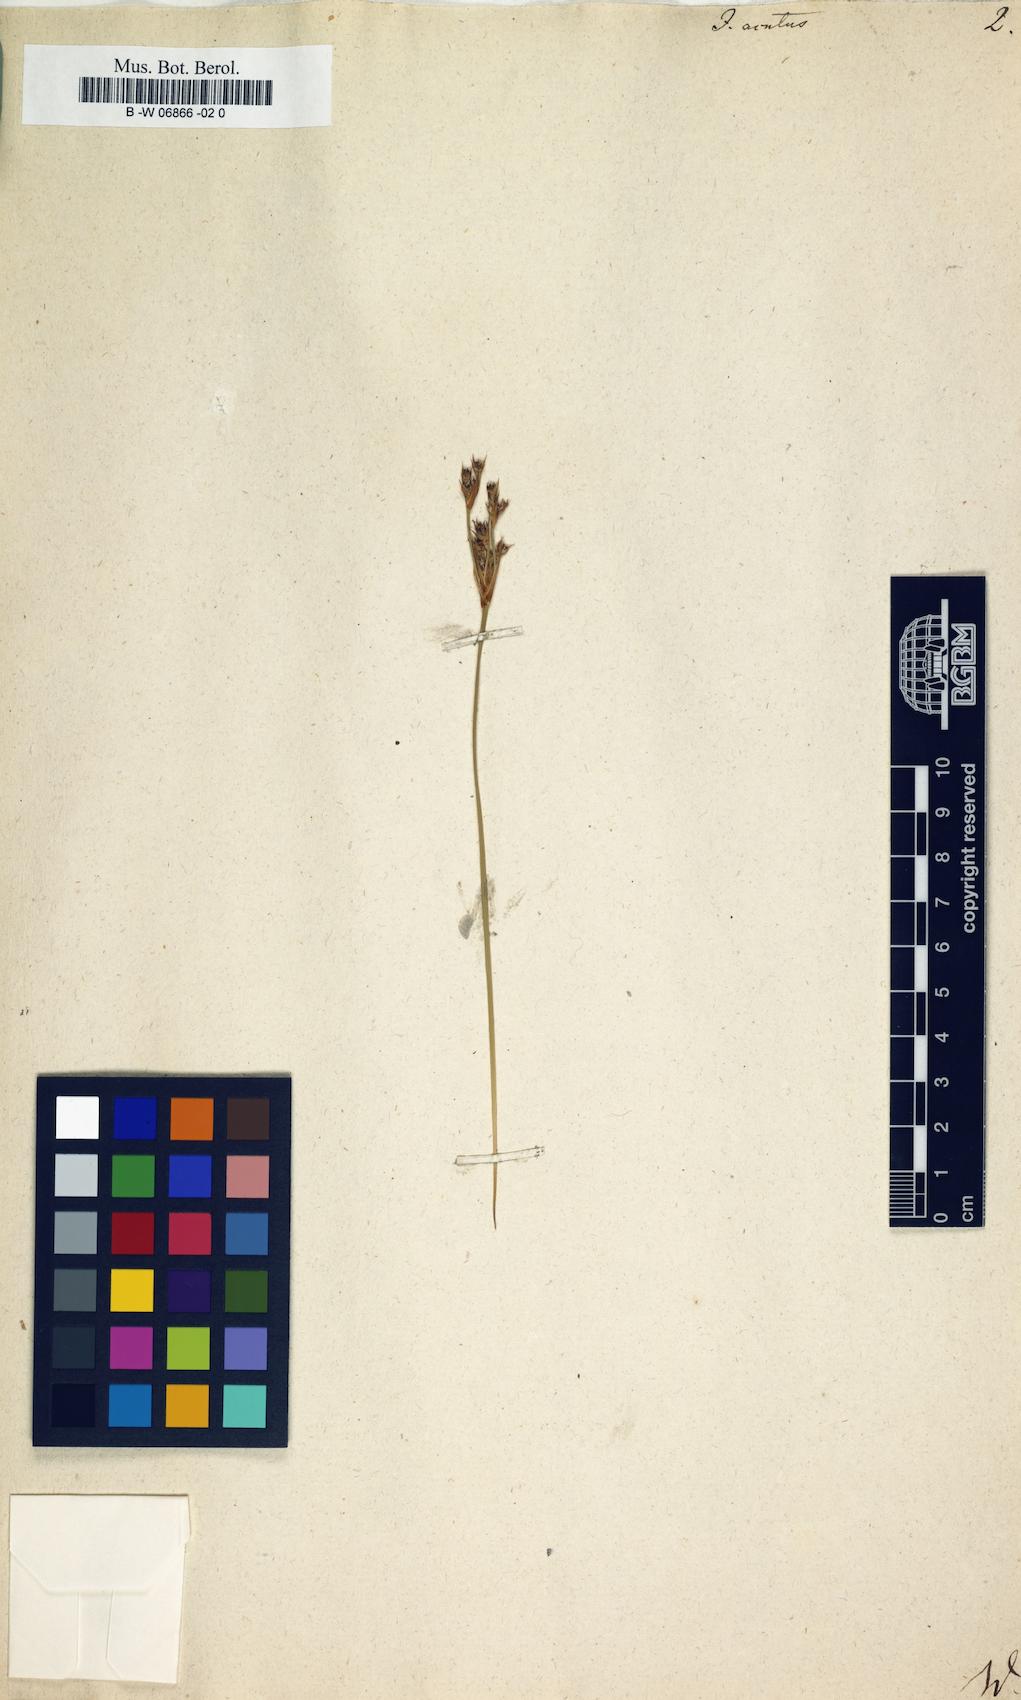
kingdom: Plantae
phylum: Tracheophyta
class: Liliopsida
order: Poales
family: Juncaceae
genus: Juncus
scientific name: Juncus acutus
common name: Sharp rush
